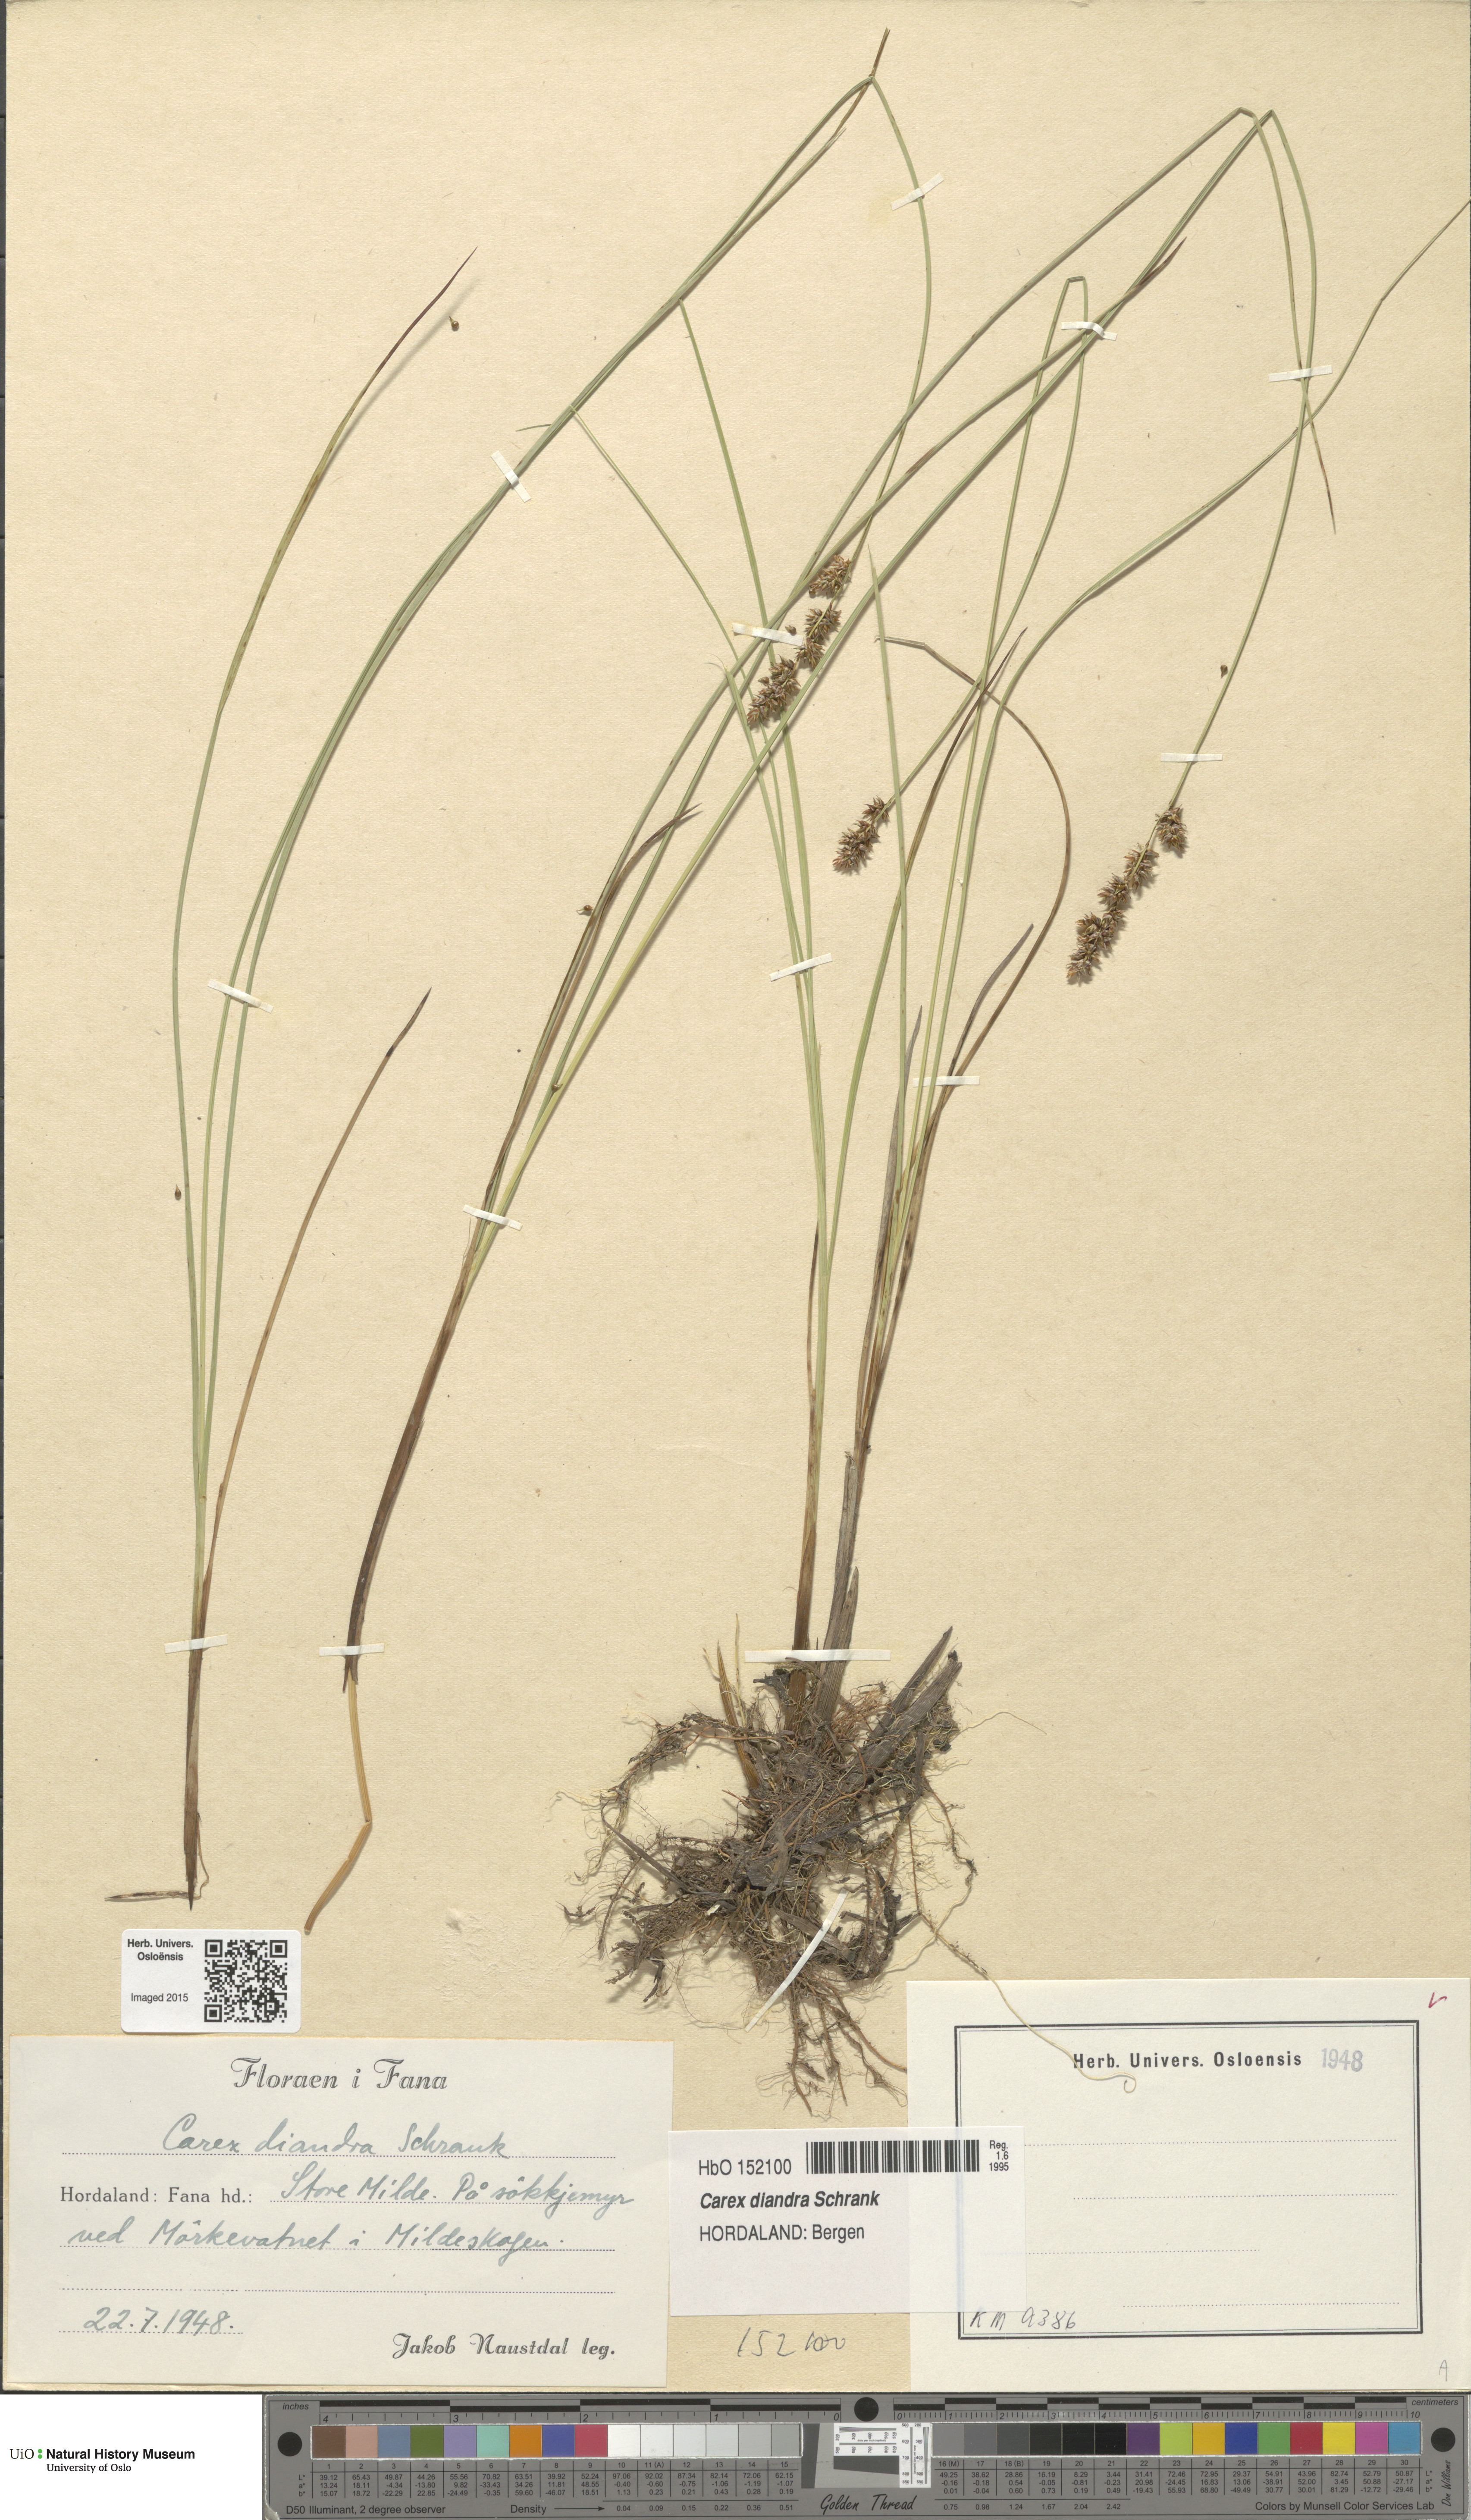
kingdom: Plantae
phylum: Tracheophyta
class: Liliopsida
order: Poales
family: Cyperaceae
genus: Carex
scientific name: Carex diandra
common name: Lesser tussock-sedge
